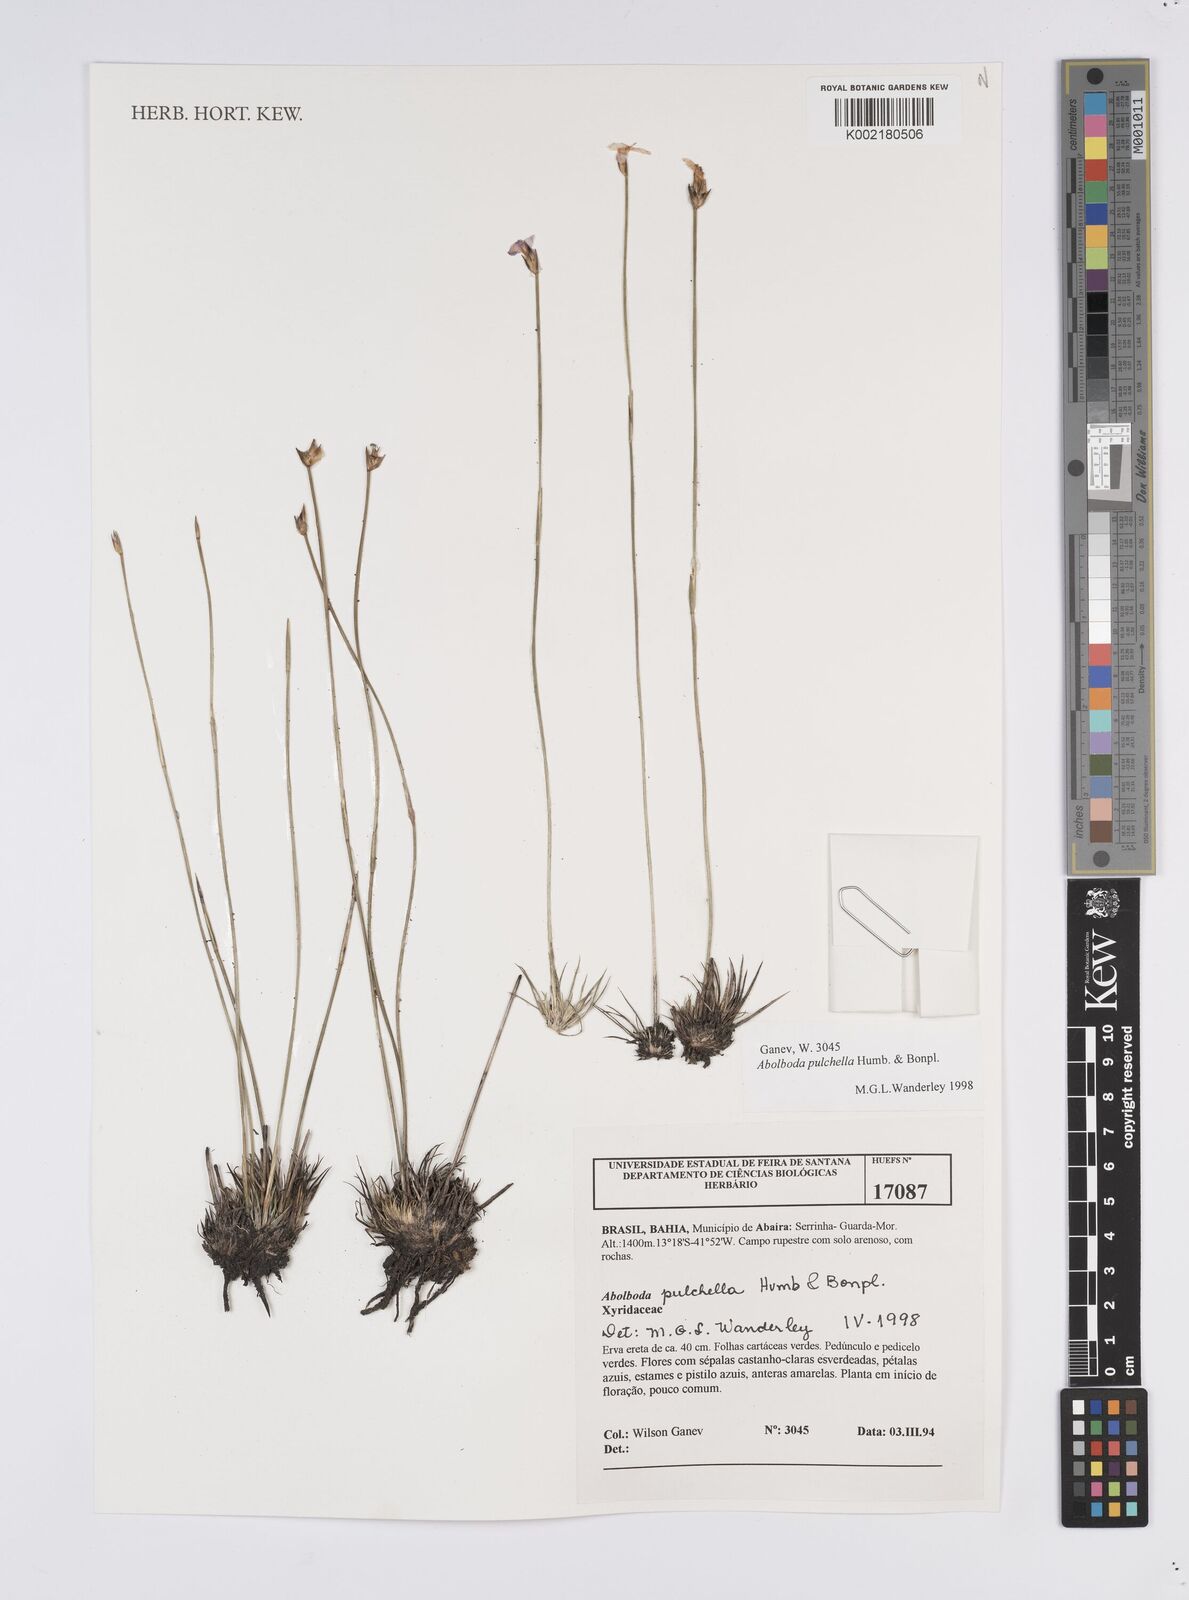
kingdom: Plantae
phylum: Tracheophyta
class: Liliopsida
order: Poales
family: Xyridaceae
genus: Abolboda
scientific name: Abolboda pulchella
